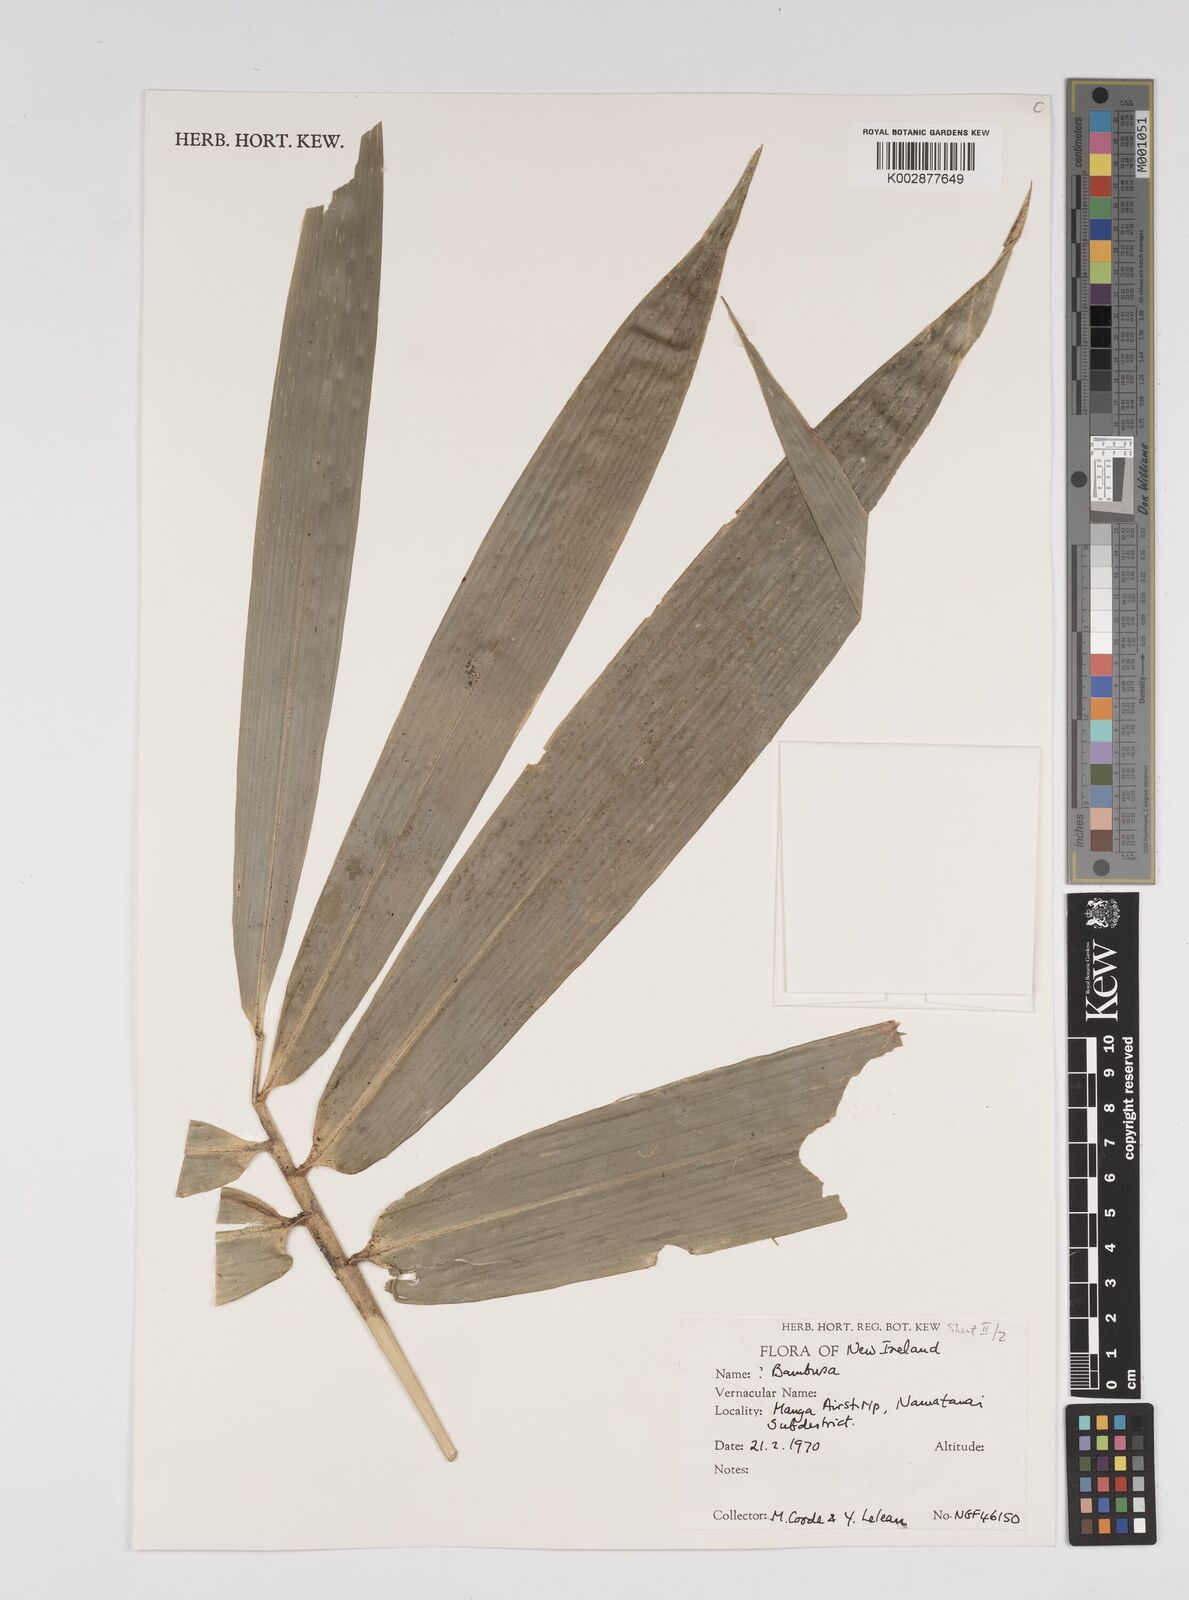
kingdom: Plantae
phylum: Tracheophyta
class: Liliopsida
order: Poales
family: Poaceae
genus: Bambusa
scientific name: Bambusa
